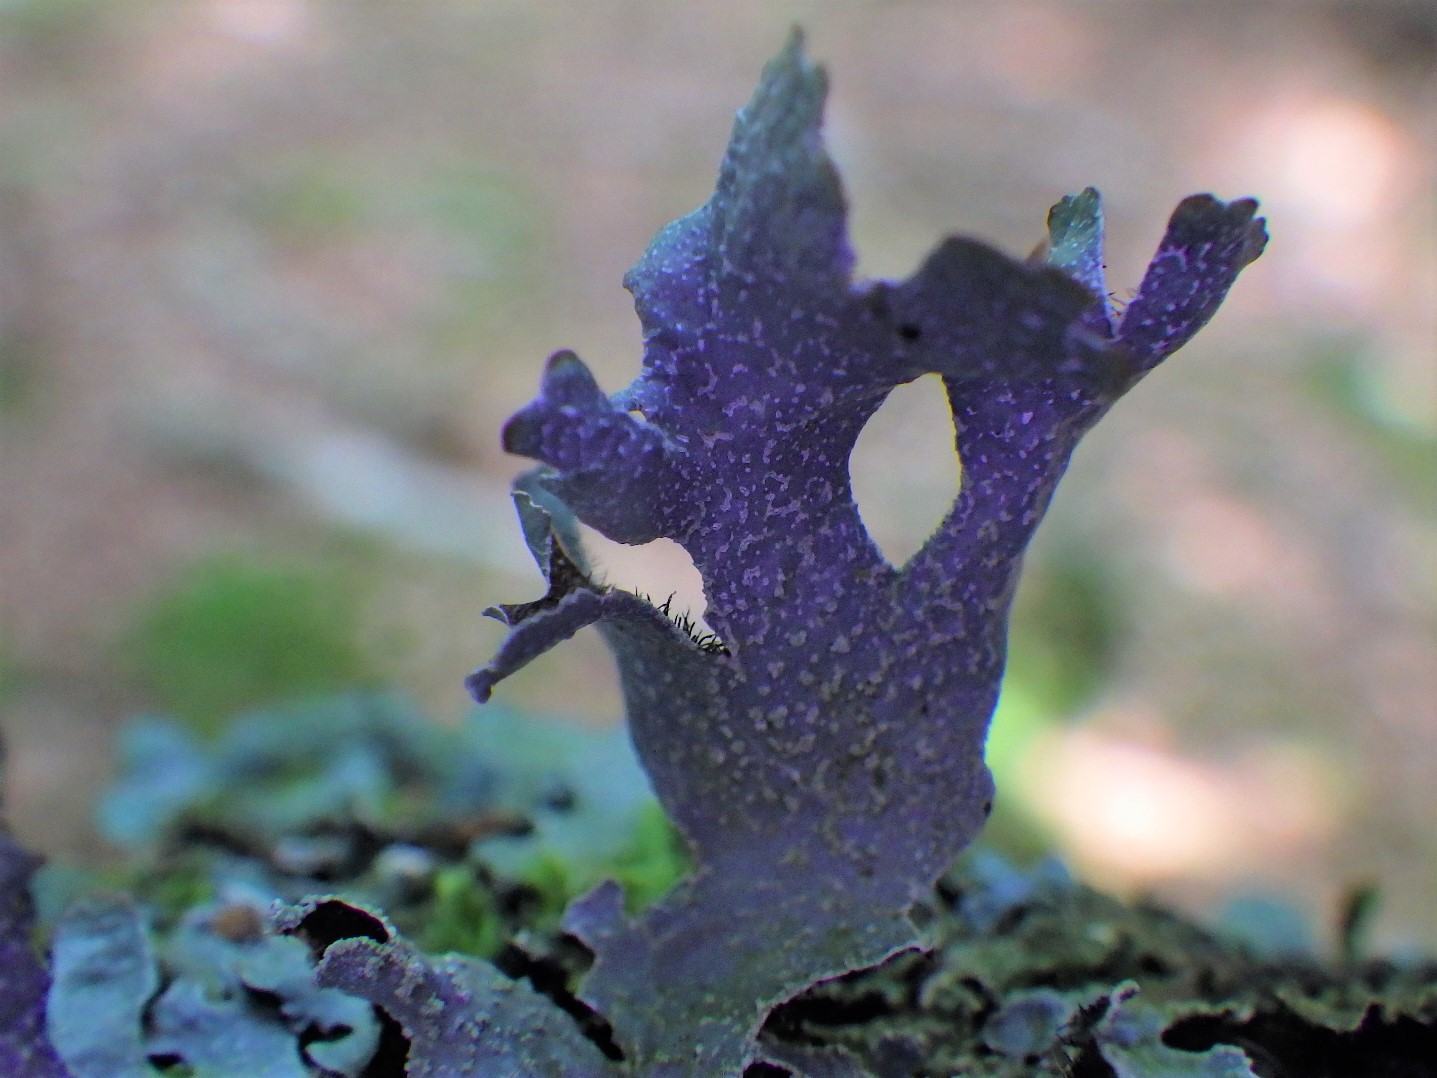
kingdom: Fungi
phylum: Ascomycota
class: Lecanoromycetes
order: Lecanorales
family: Parmeliaceae
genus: Parmelia
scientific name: Parmelia submontana
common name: langlobet skållav
